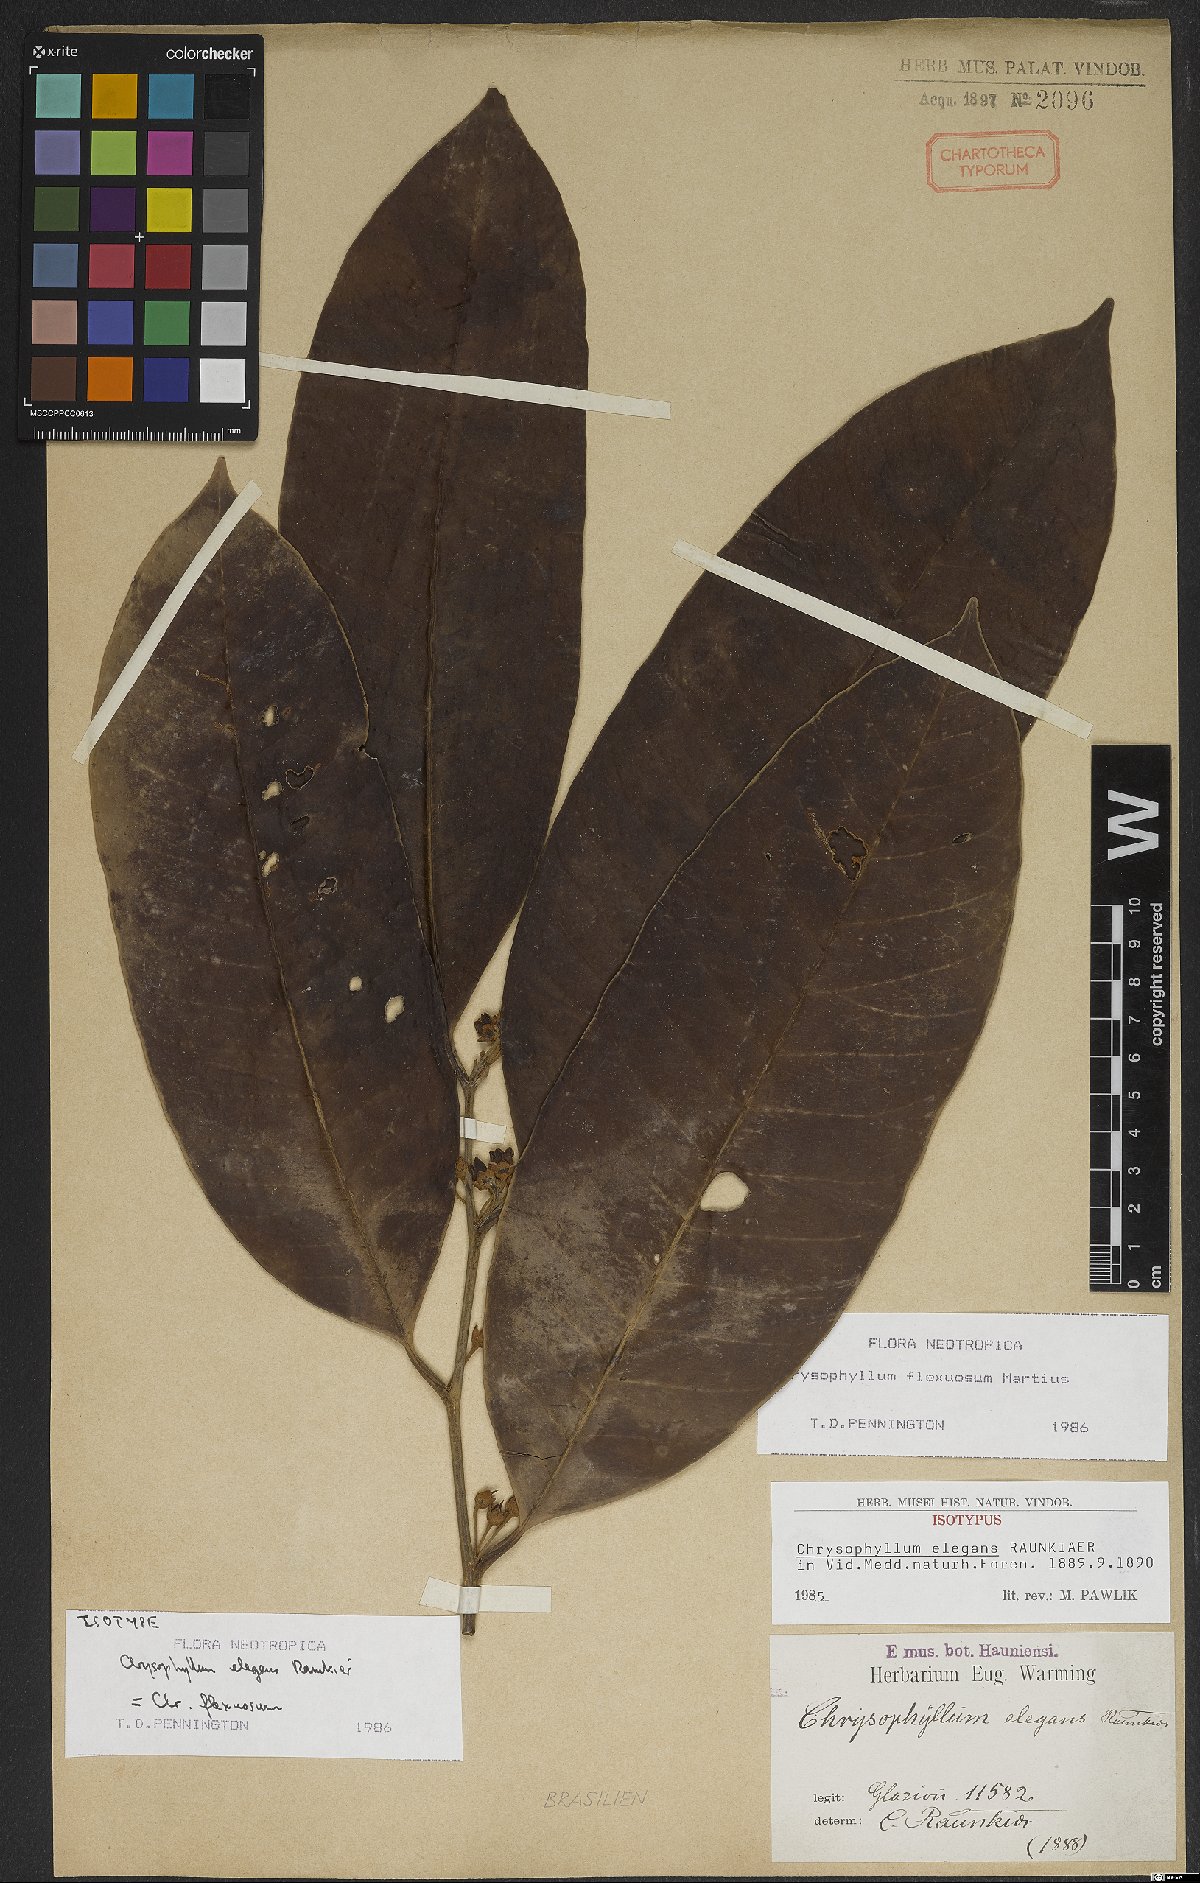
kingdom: Plantae
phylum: Tracheophyta
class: Magnoliopsida
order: Ericales
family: Sapotaceae
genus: Chrysophyllum
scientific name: Chrysophyllum flexuosum
